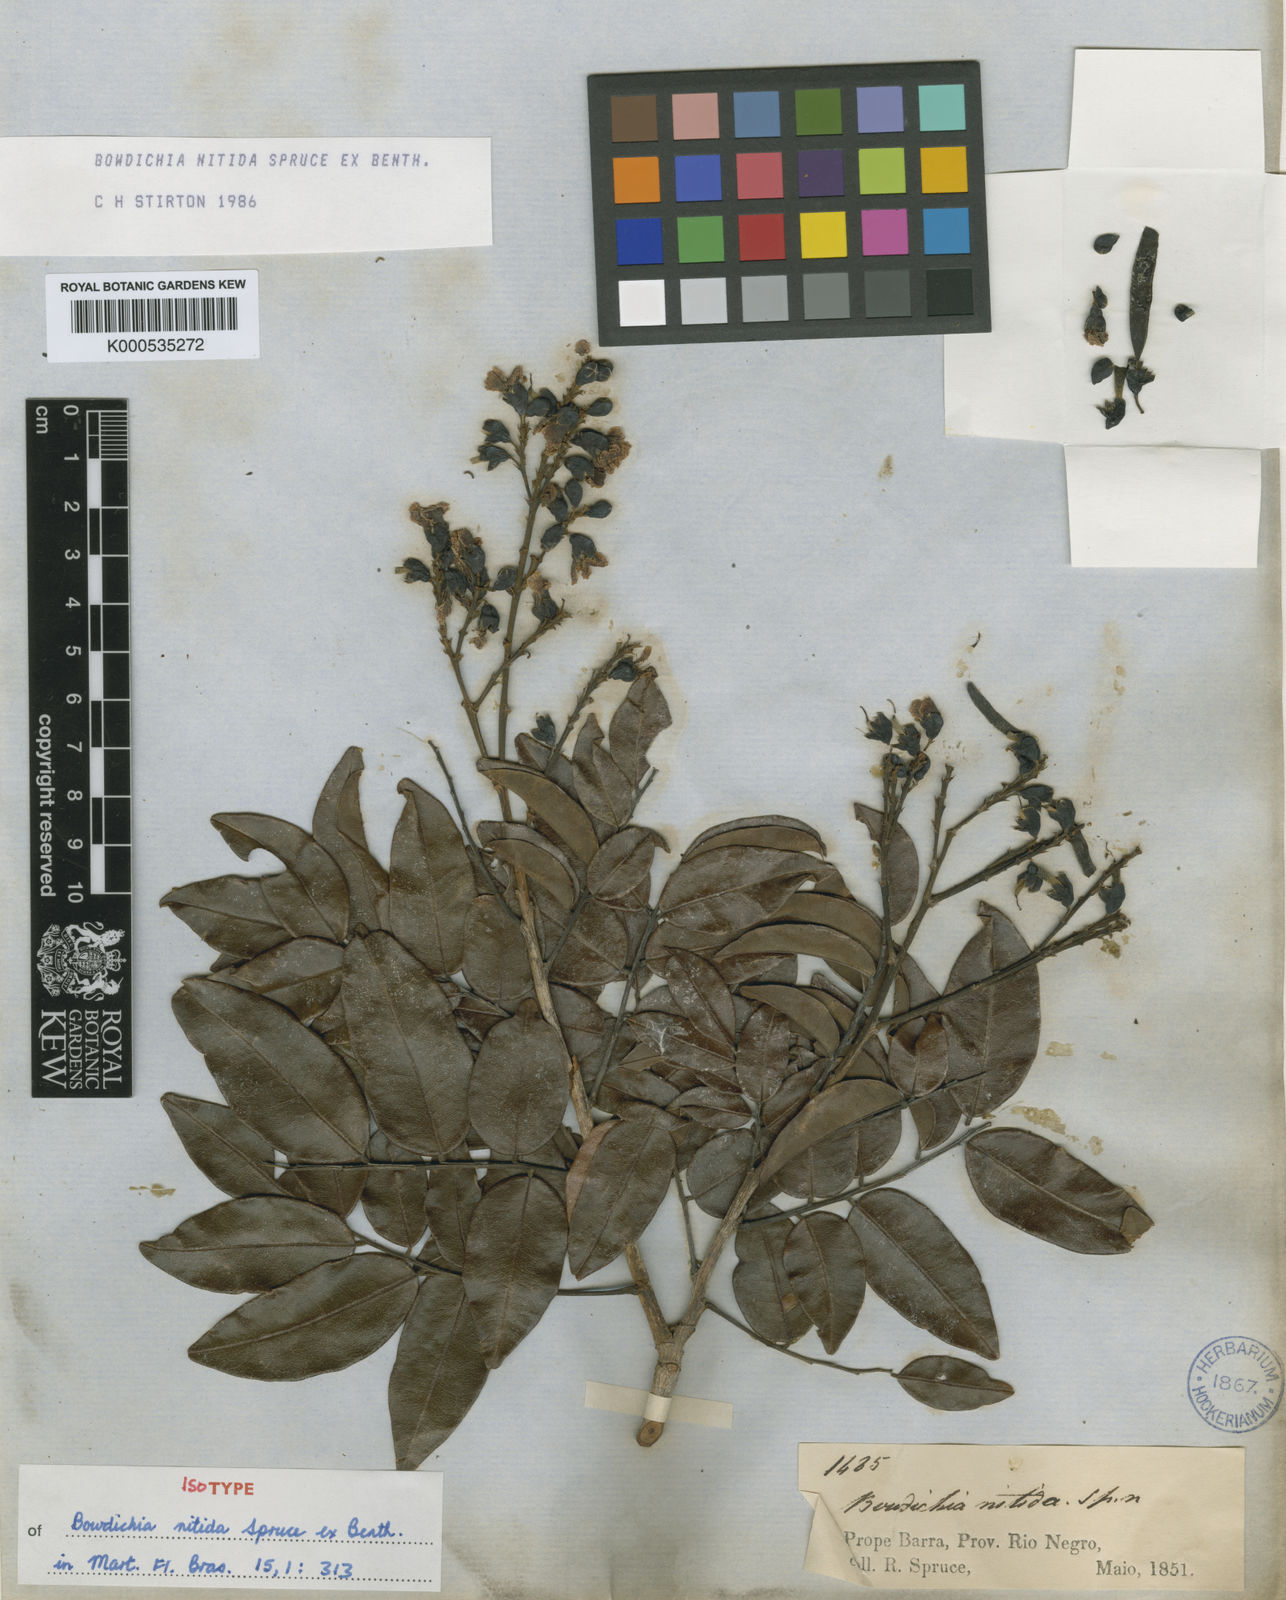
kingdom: Plantae
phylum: Tracheophyta
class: Magnoliopsida
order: Fabales
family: Fabaceae
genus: Bowdichia
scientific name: Bowdichia nitida
